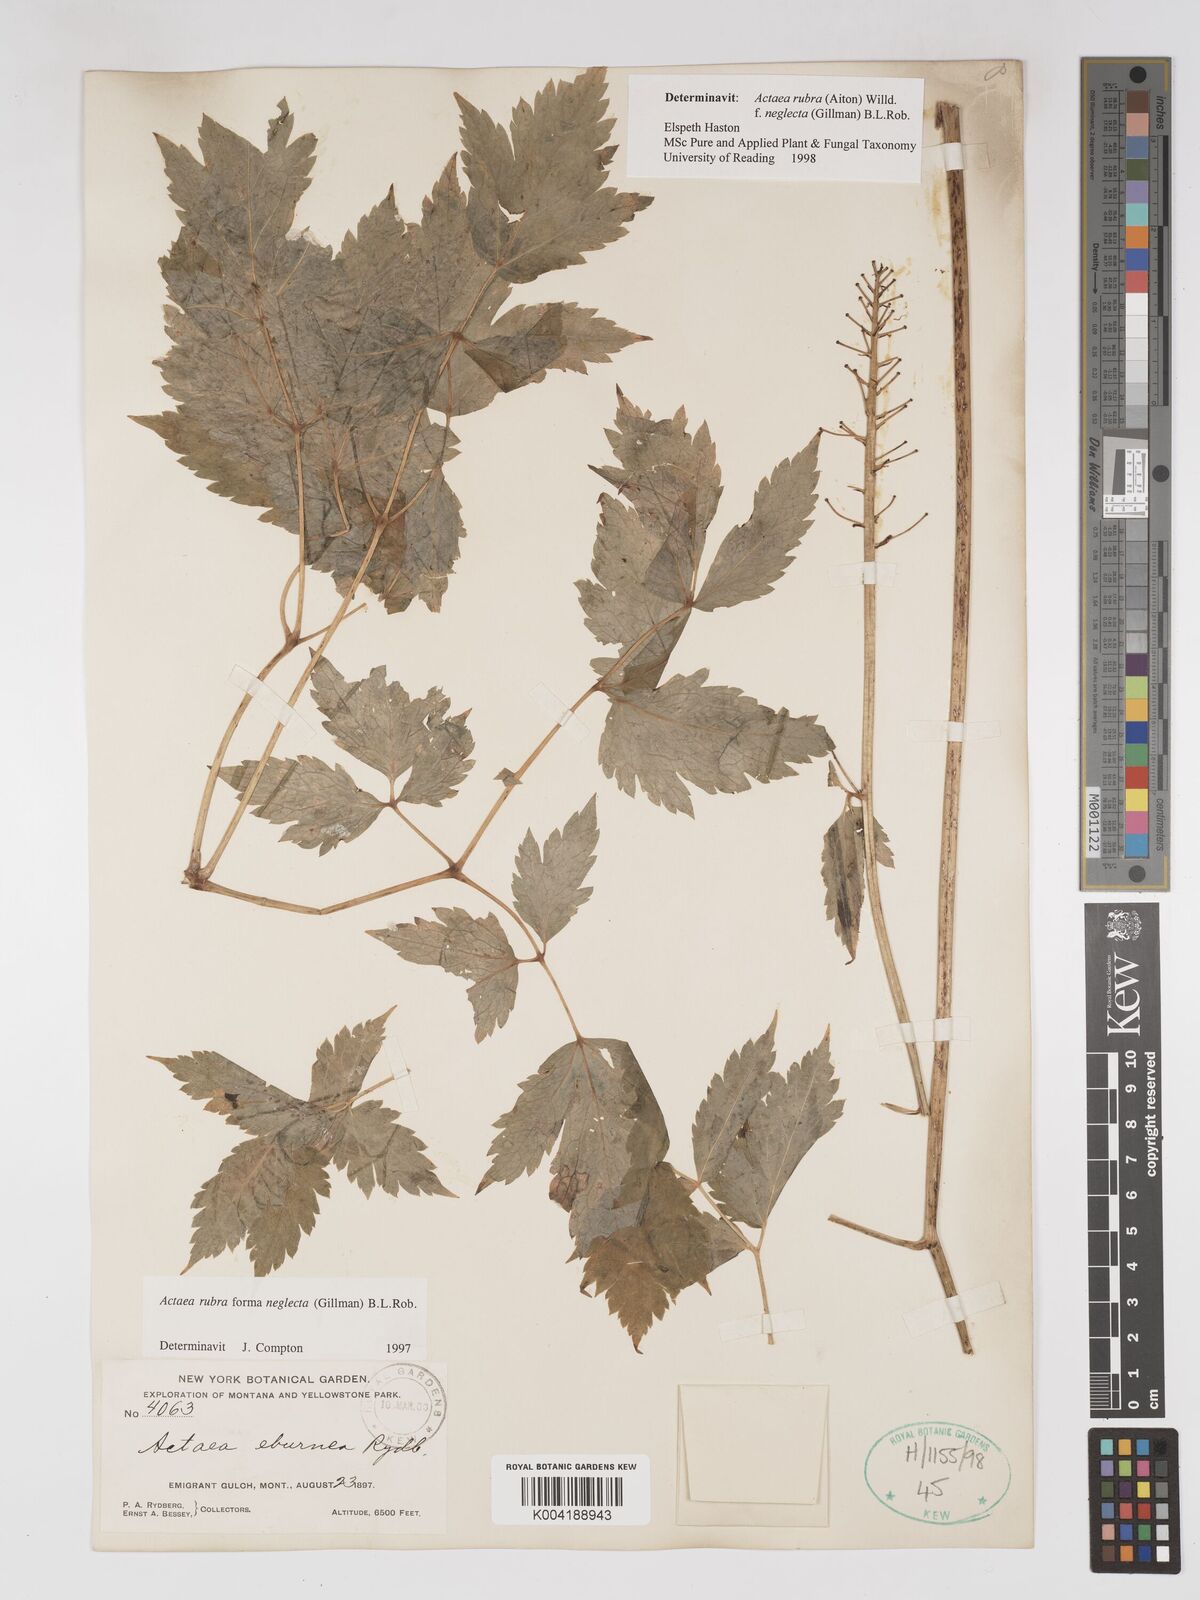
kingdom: Plantae
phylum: Tracheophyta
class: Magnoliopsida
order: Ranunculales
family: Ranunculaceae
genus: Actaea
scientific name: Actaea rubra
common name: Red baneberry
